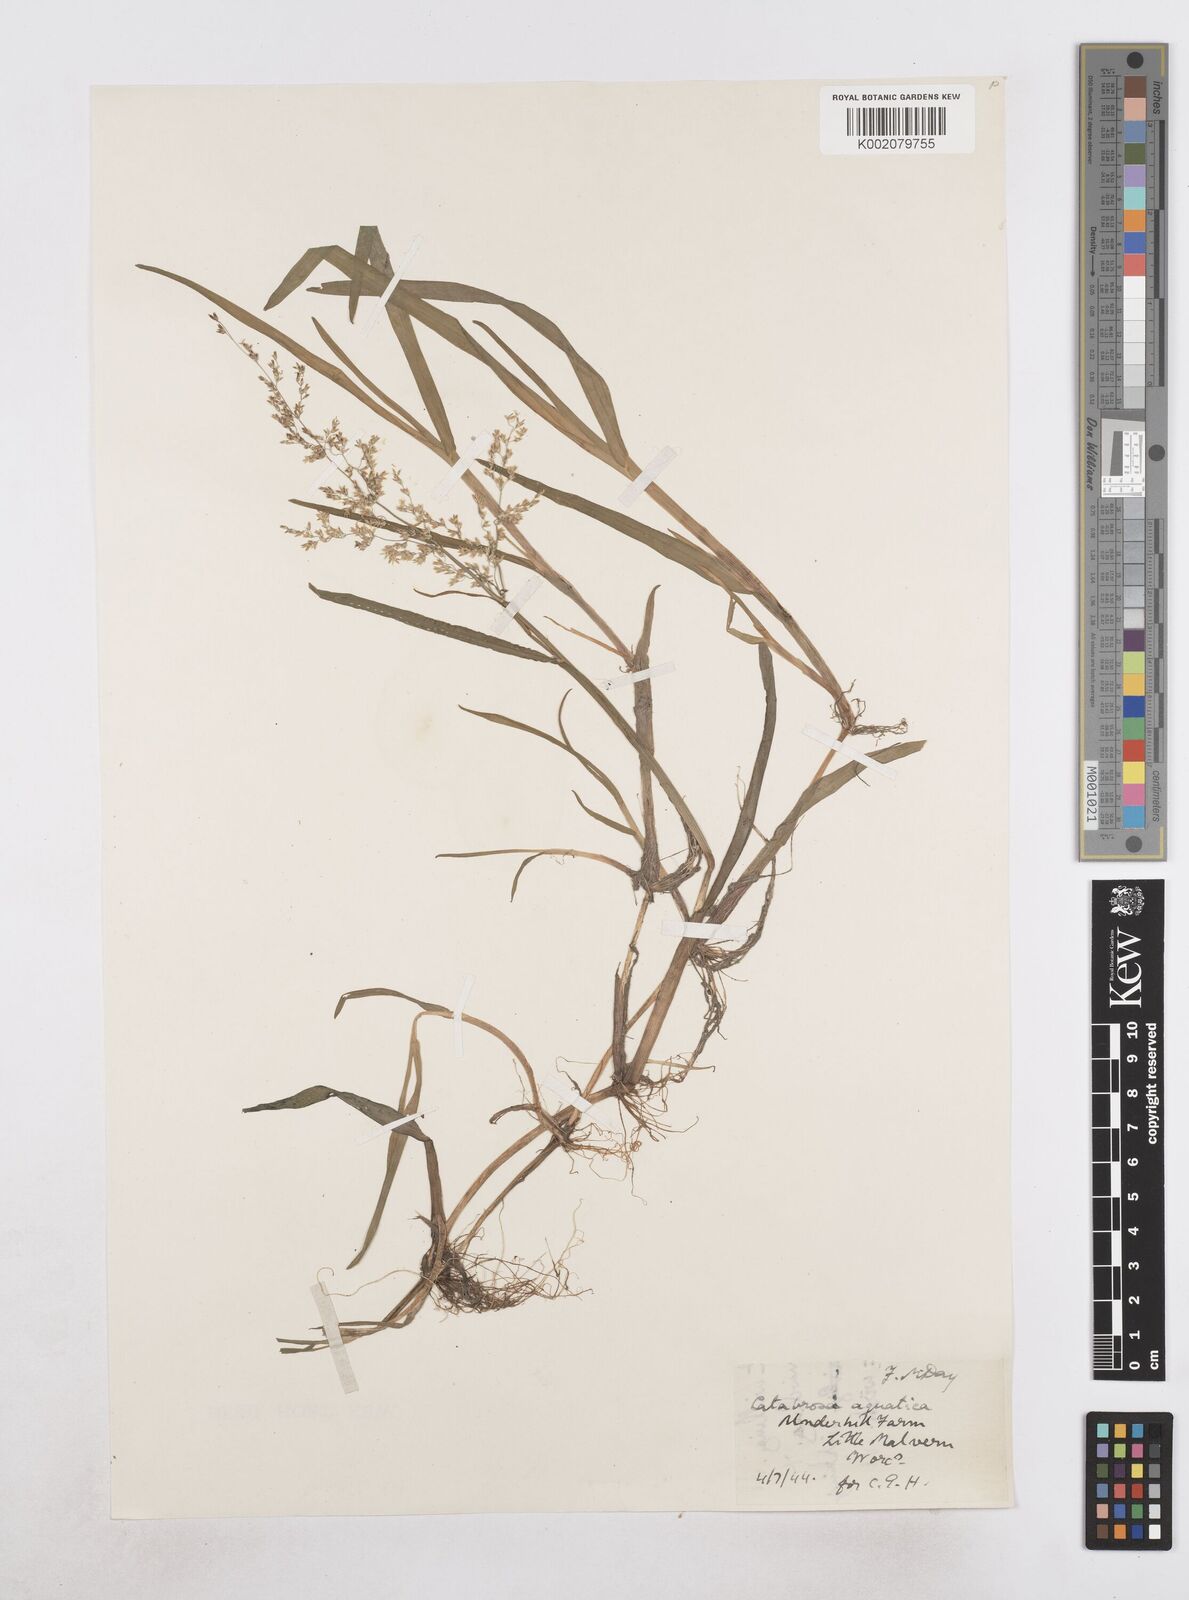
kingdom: Plantae
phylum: Tracheophyta
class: Liliopsida
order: Poales
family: Poaceae
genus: Catabrosa
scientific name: Catabrosa aquatica
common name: Whorl-grass
